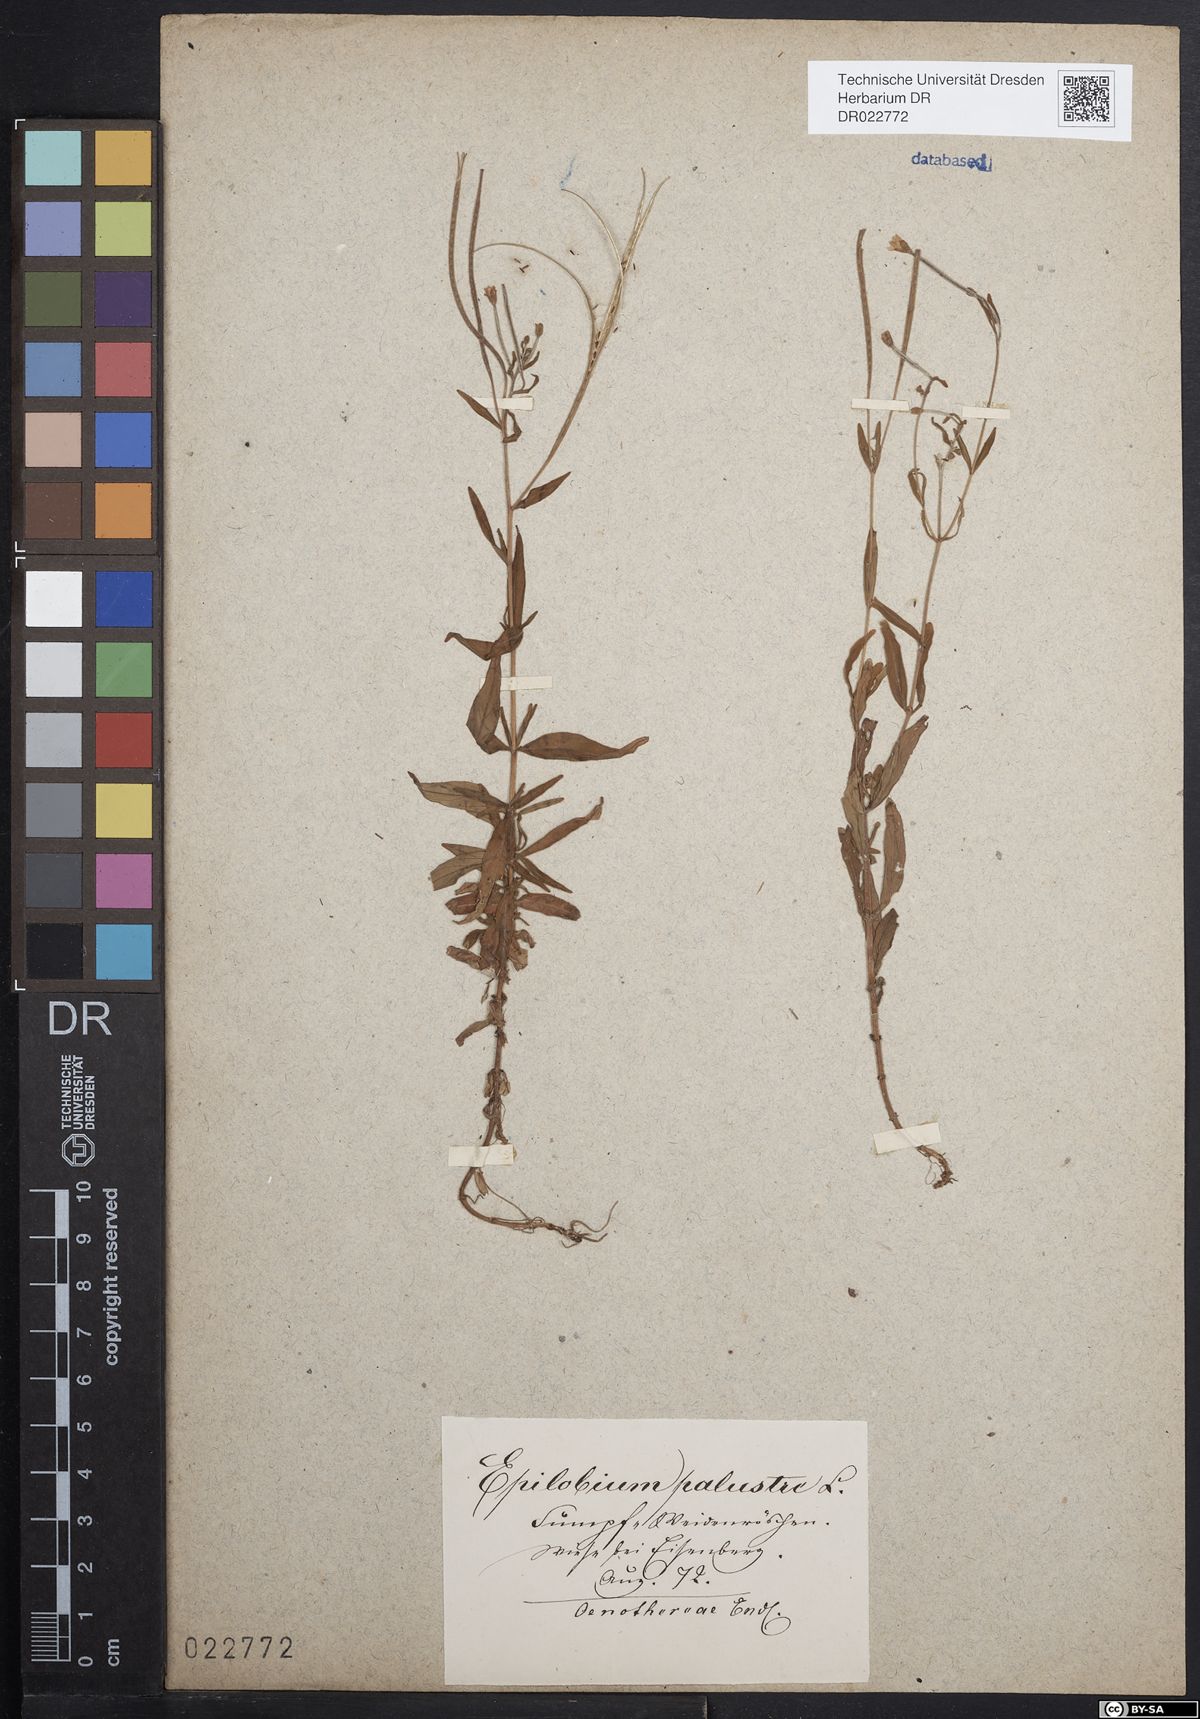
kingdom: Plantae
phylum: Tracheophyta
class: Magnoliopsida
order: Myrtales
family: Onagraceae
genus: Epilobium
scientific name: Epilobium palustre
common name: Marsh willowherb
